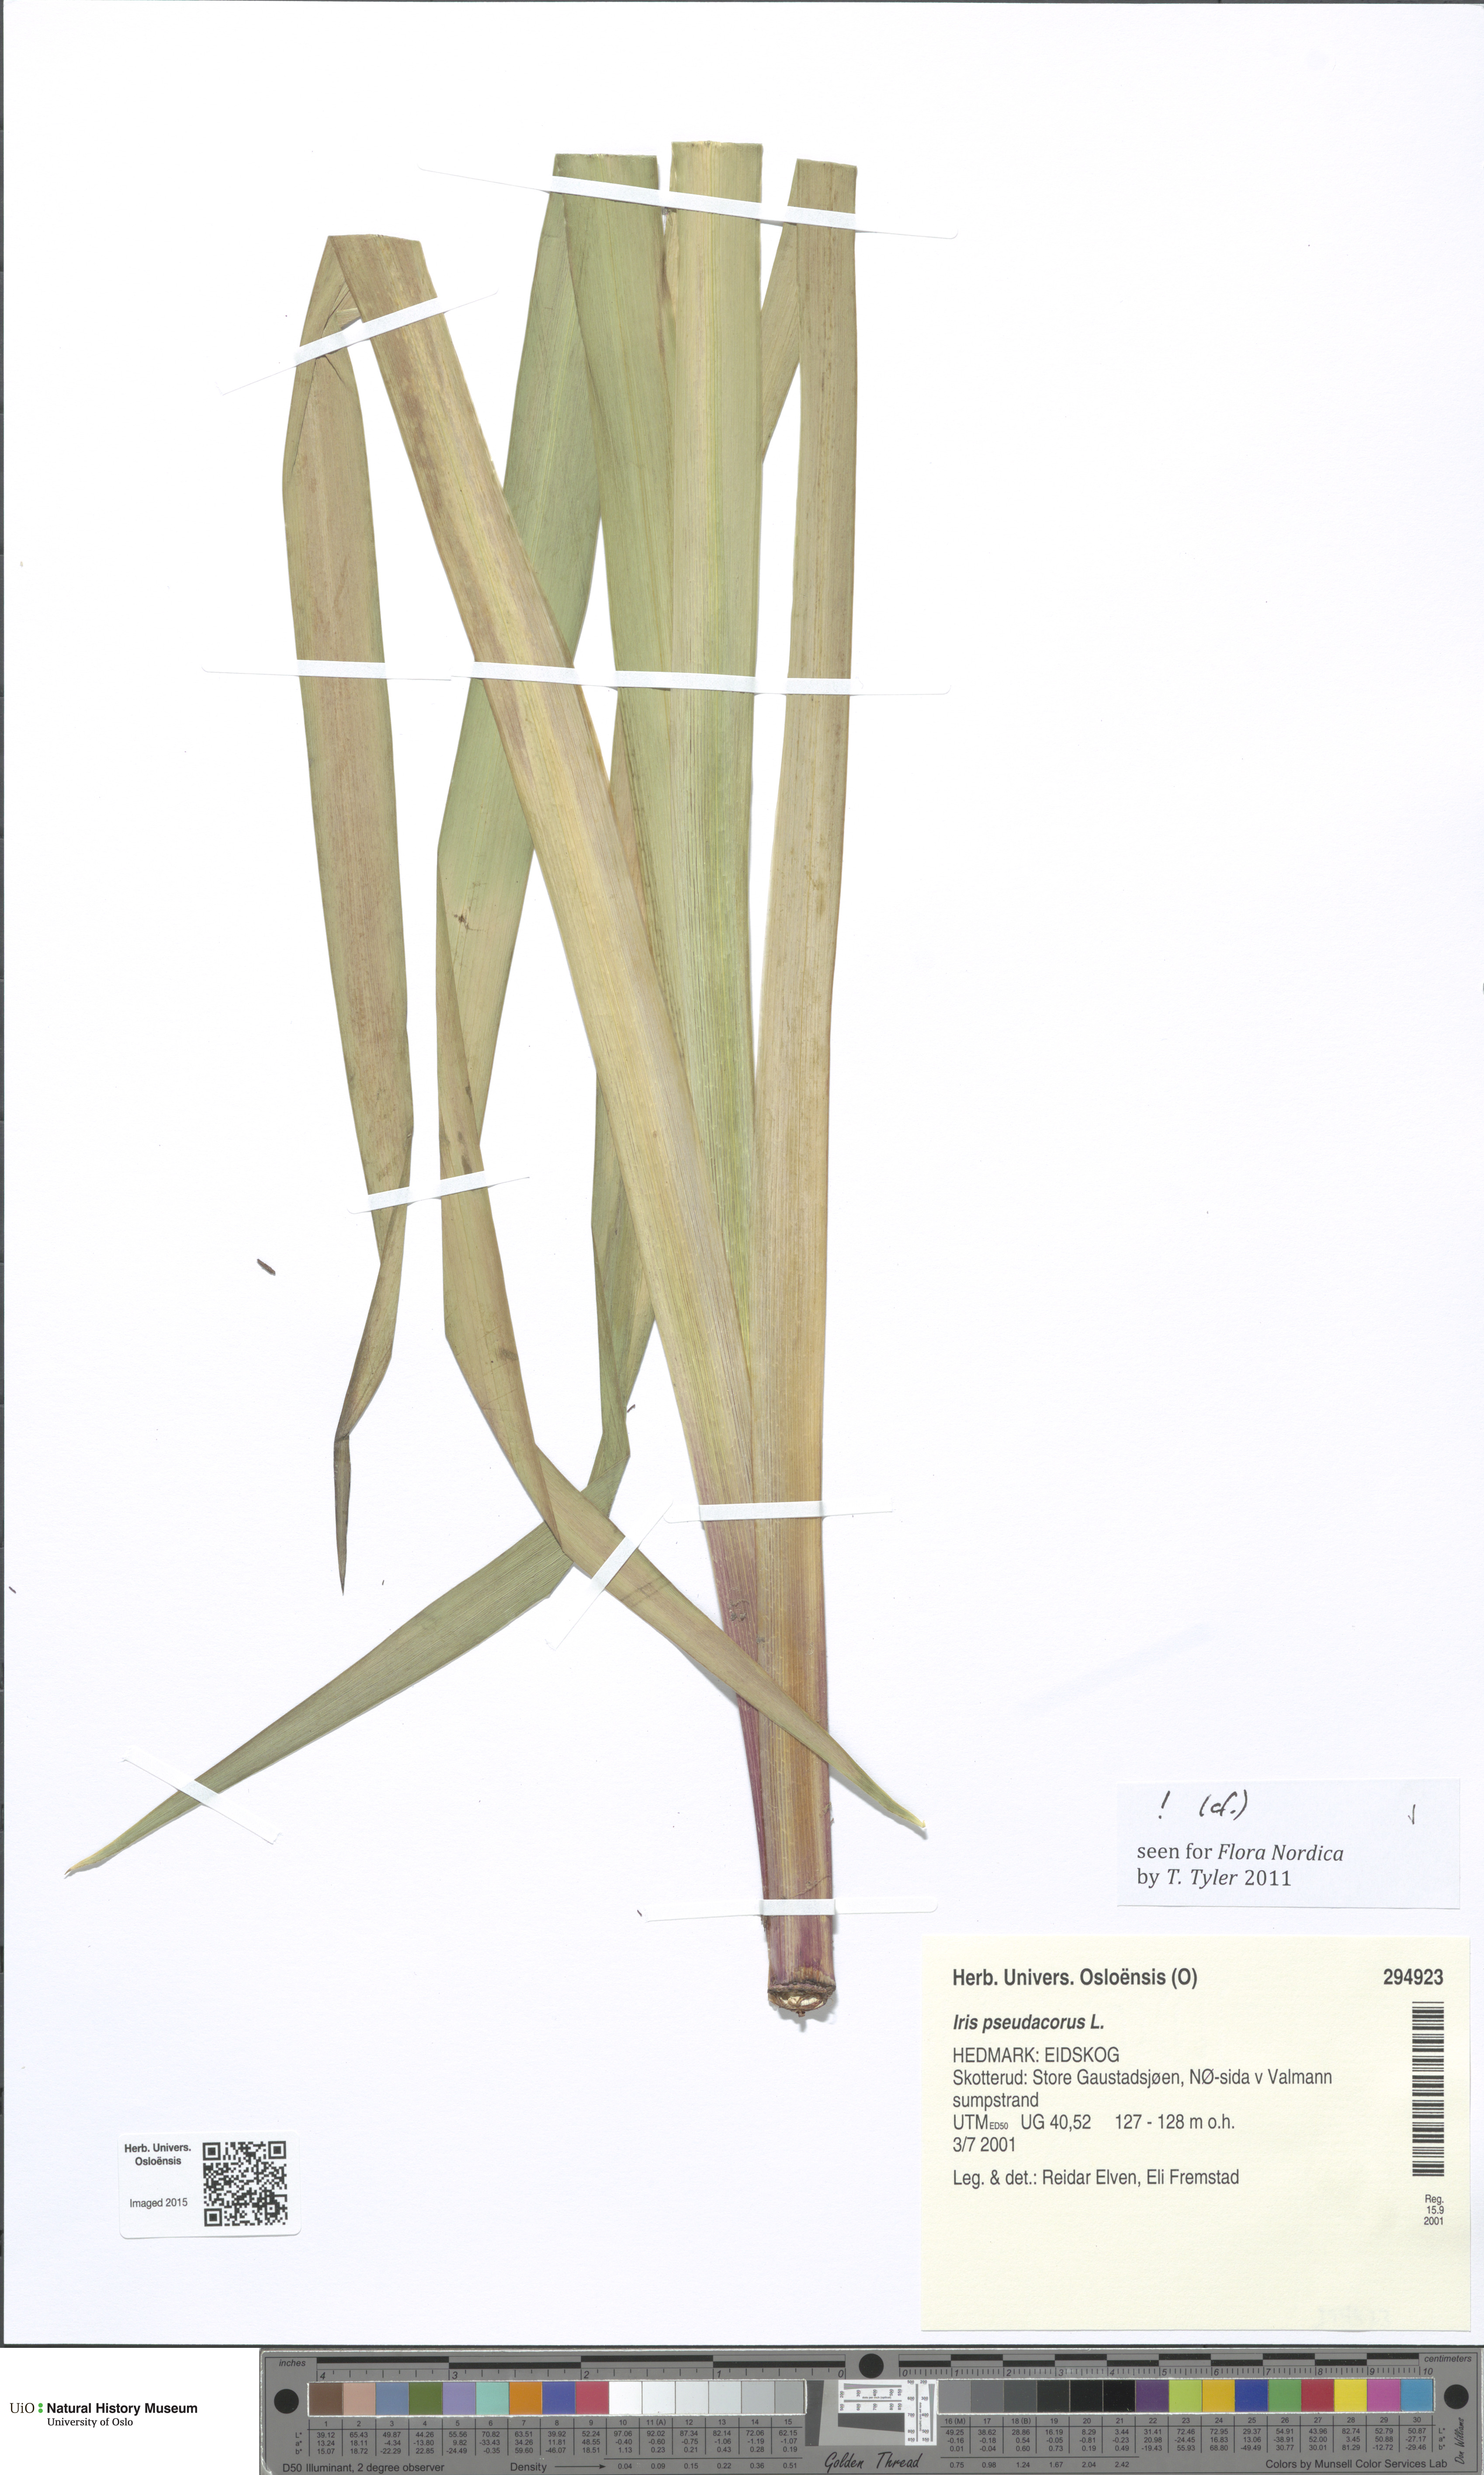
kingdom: Plantae
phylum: Tracheophyta
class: Liliopsida
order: Asparagales
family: Iridaceae
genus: Iris
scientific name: Iris pseudacorus
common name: Yellow flag
